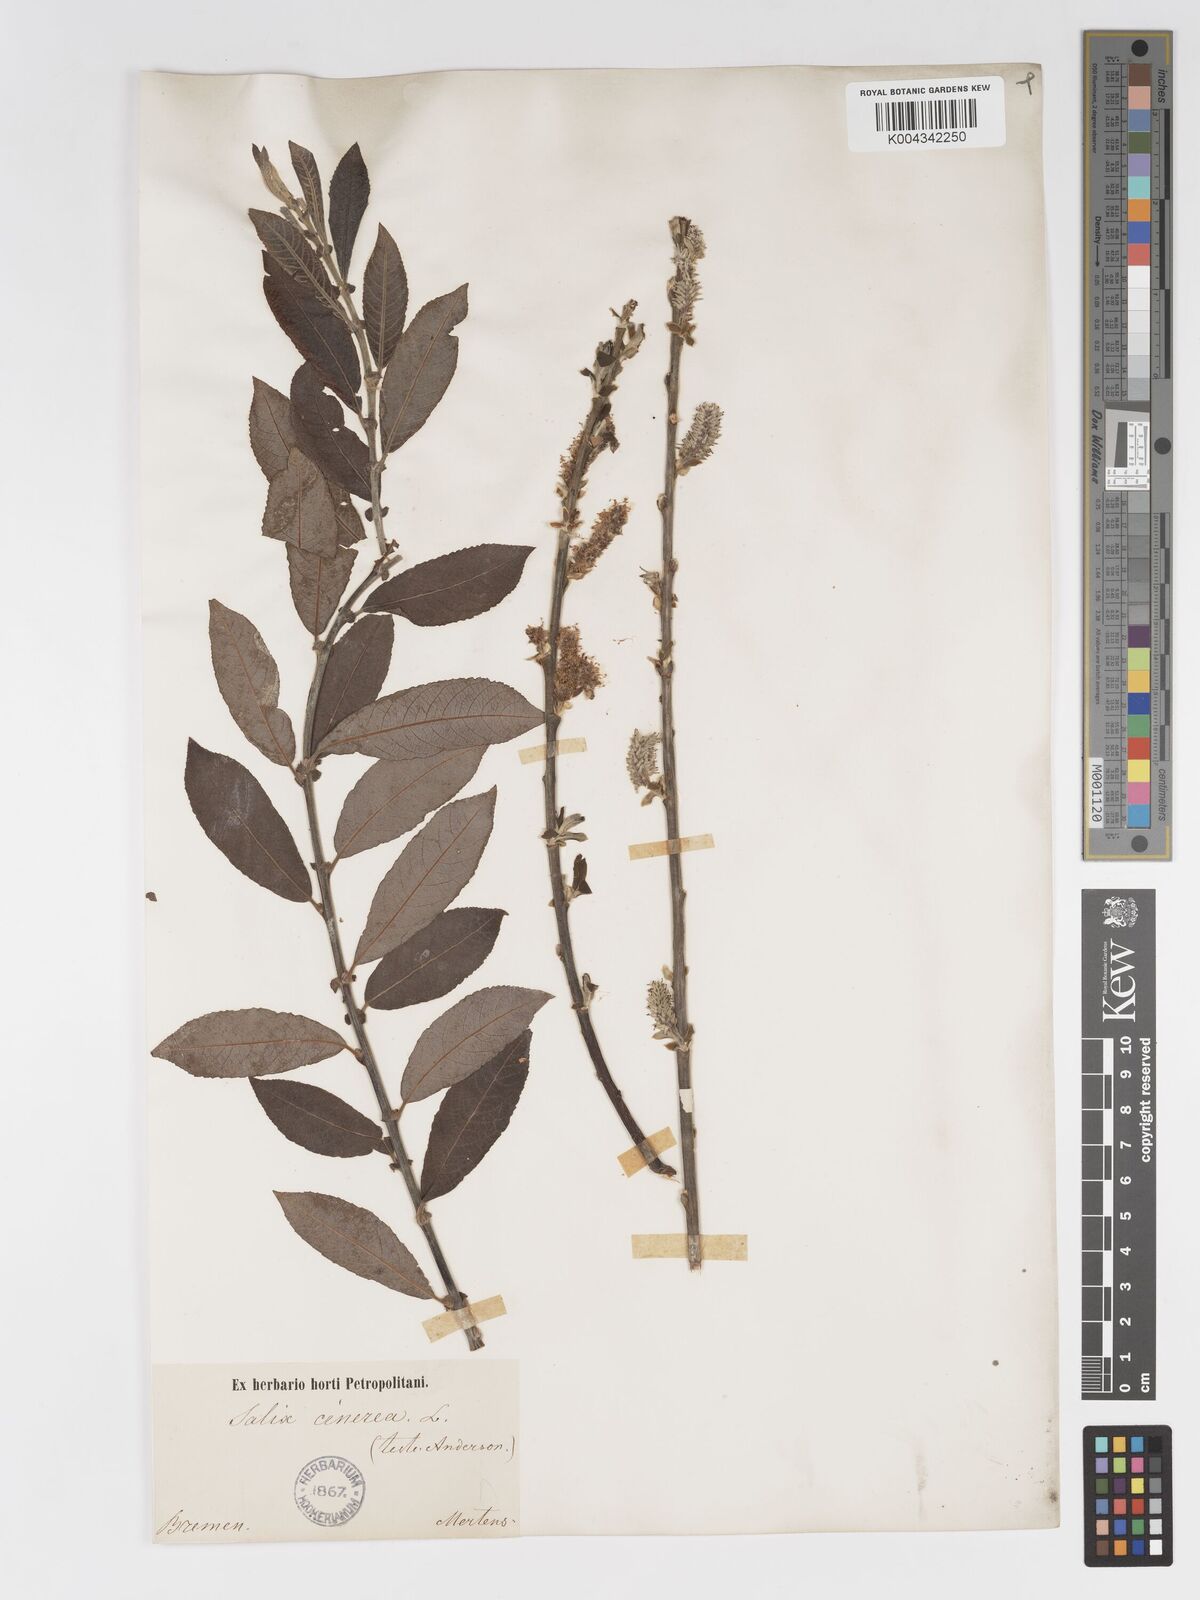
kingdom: Plantae
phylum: Tracheophyta
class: Magnoliopsida
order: Malpighiales
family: Salicaceae
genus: Salix
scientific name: Salix
